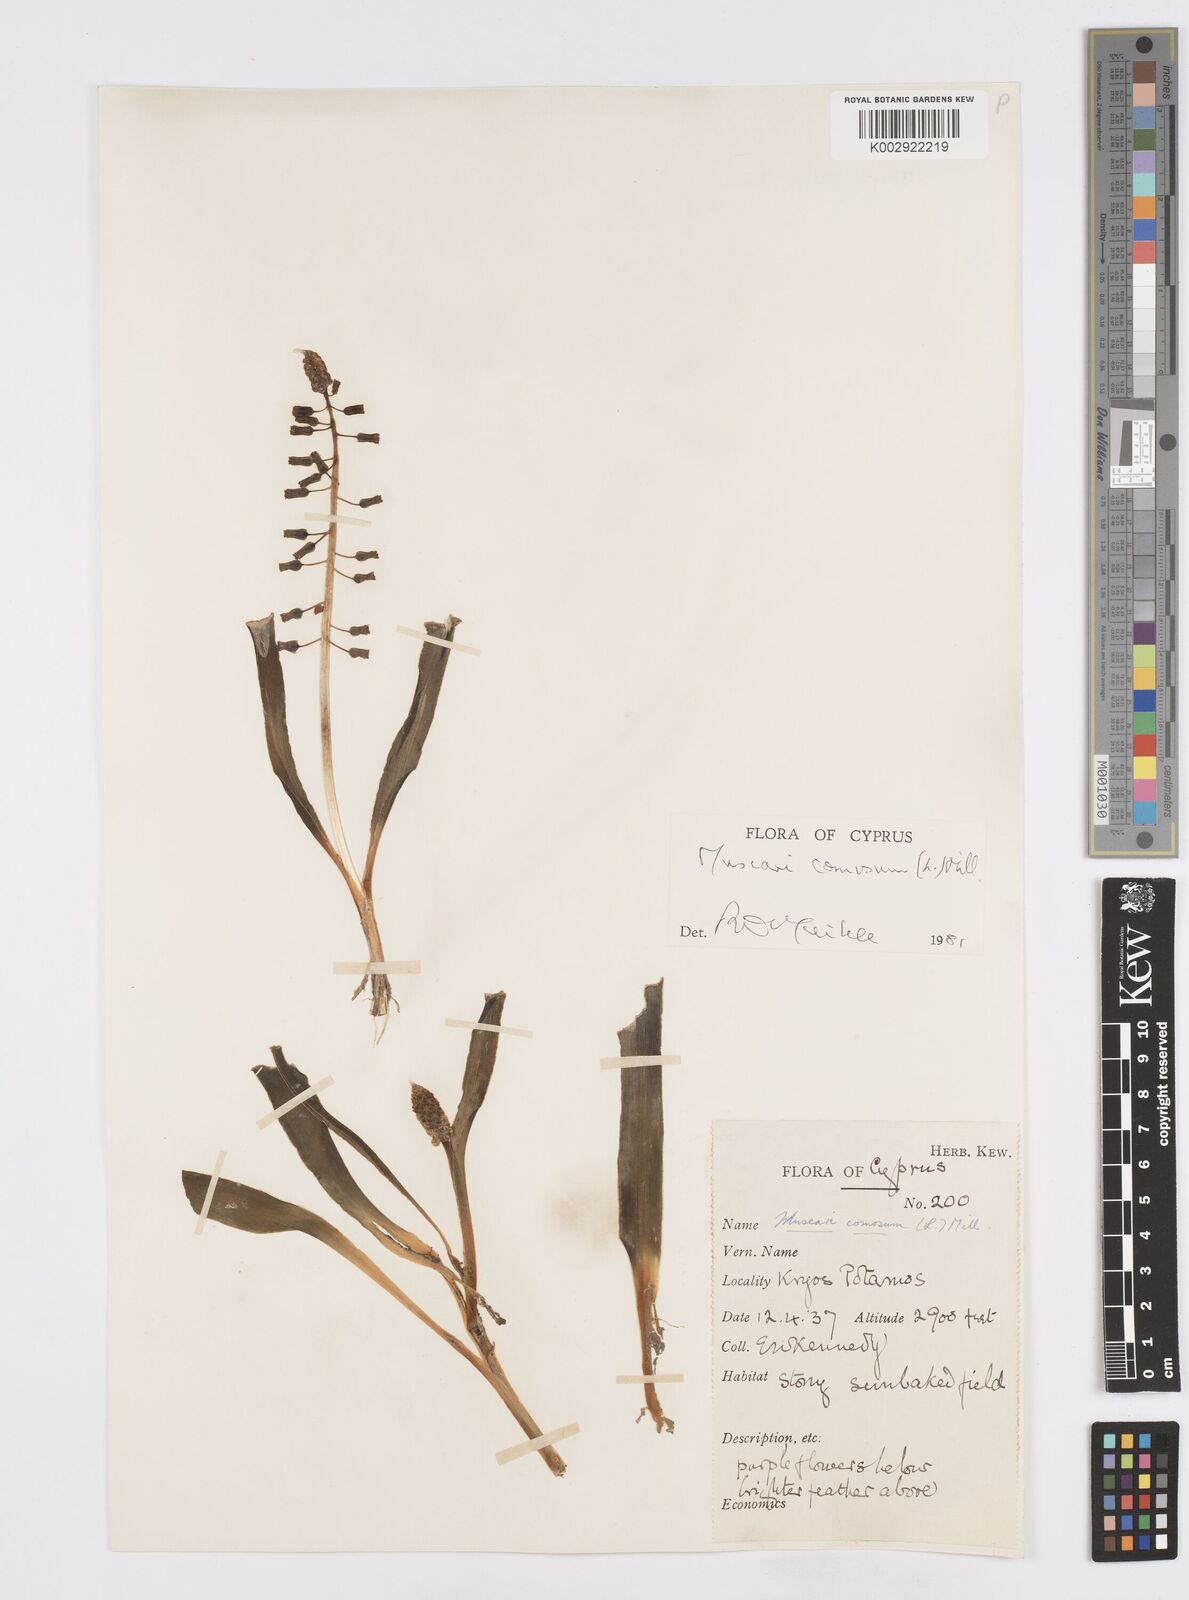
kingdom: Plantae
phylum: Tracheophyta
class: Liliopsida
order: Asparagales
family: Asparagaceae
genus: Muscari
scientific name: Muscari comosum
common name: Tassel hyacinth
